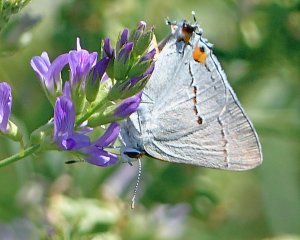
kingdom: Animalia
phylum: Arthropoda
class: Insecta
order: Lepidoptera
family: Lycaenidae
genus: Strymon
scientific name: Strymon melinus
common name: Gray Hairstreak
